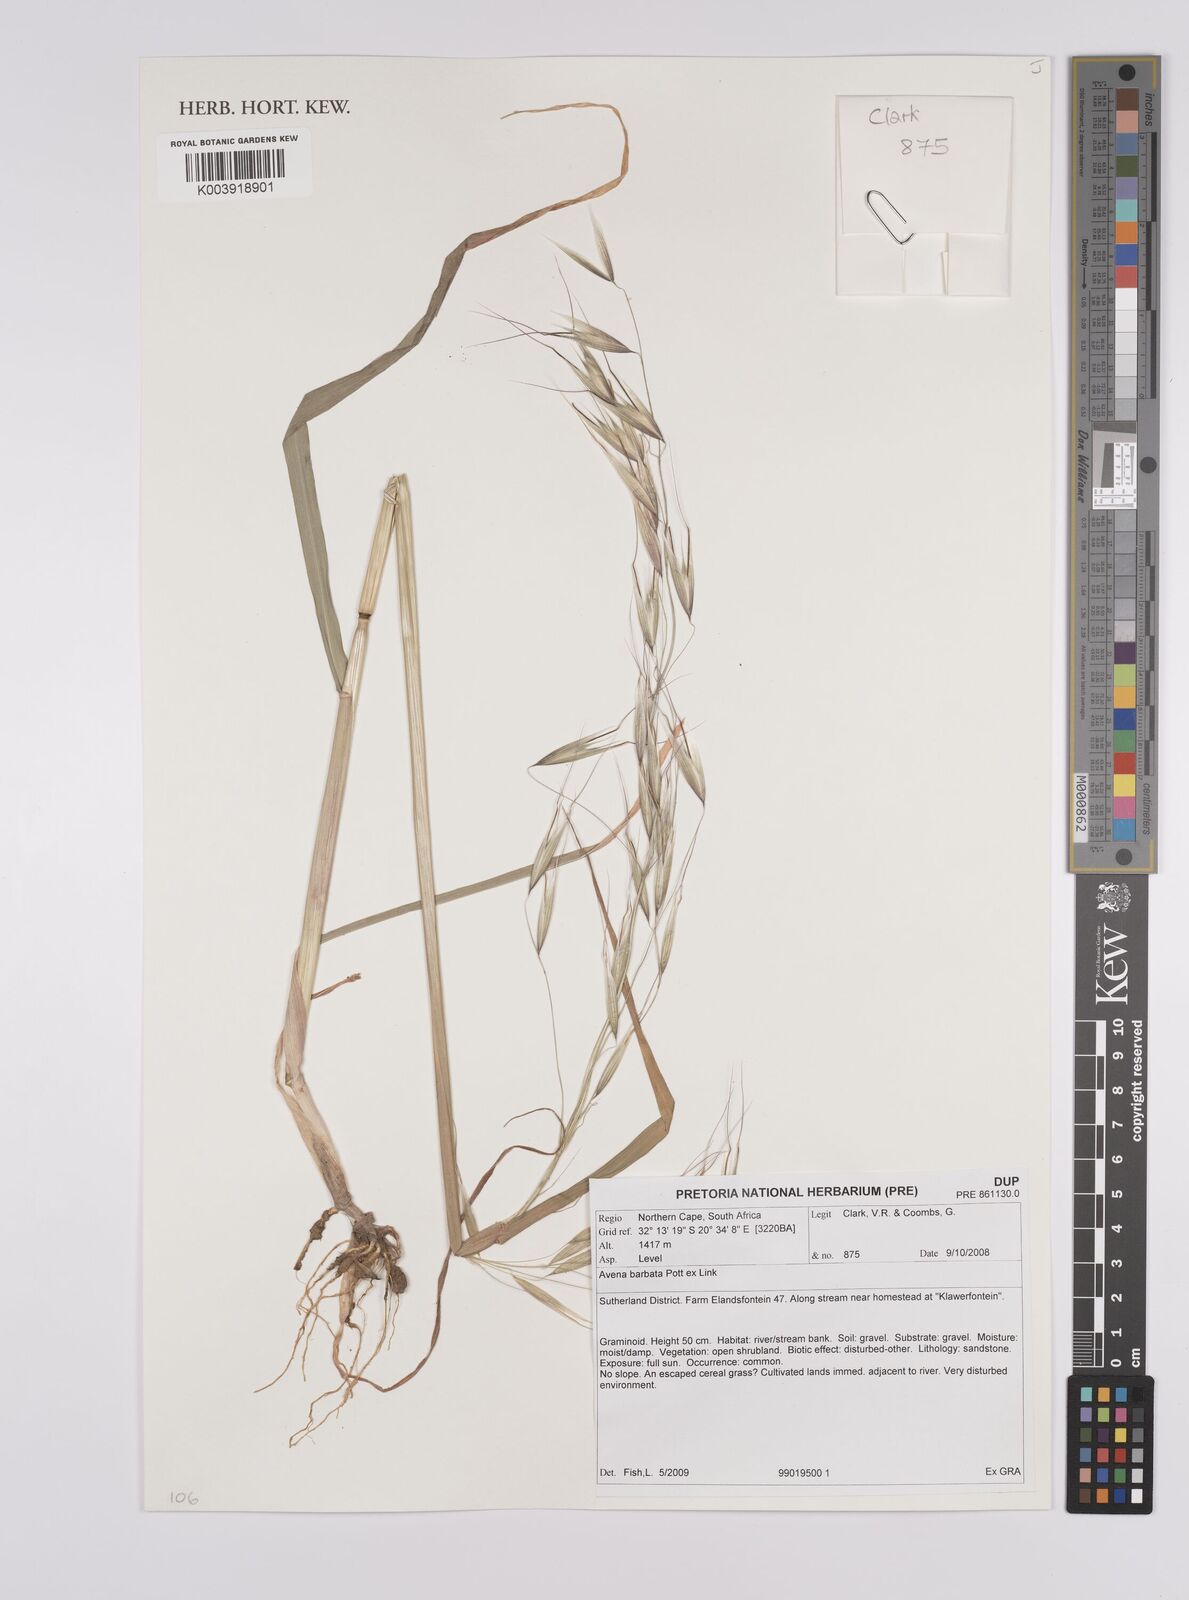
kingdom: Plantae
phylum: Tracheophyta
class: Liliopsida
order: Poales
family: Poaceae
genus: Avena
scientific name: Avena
